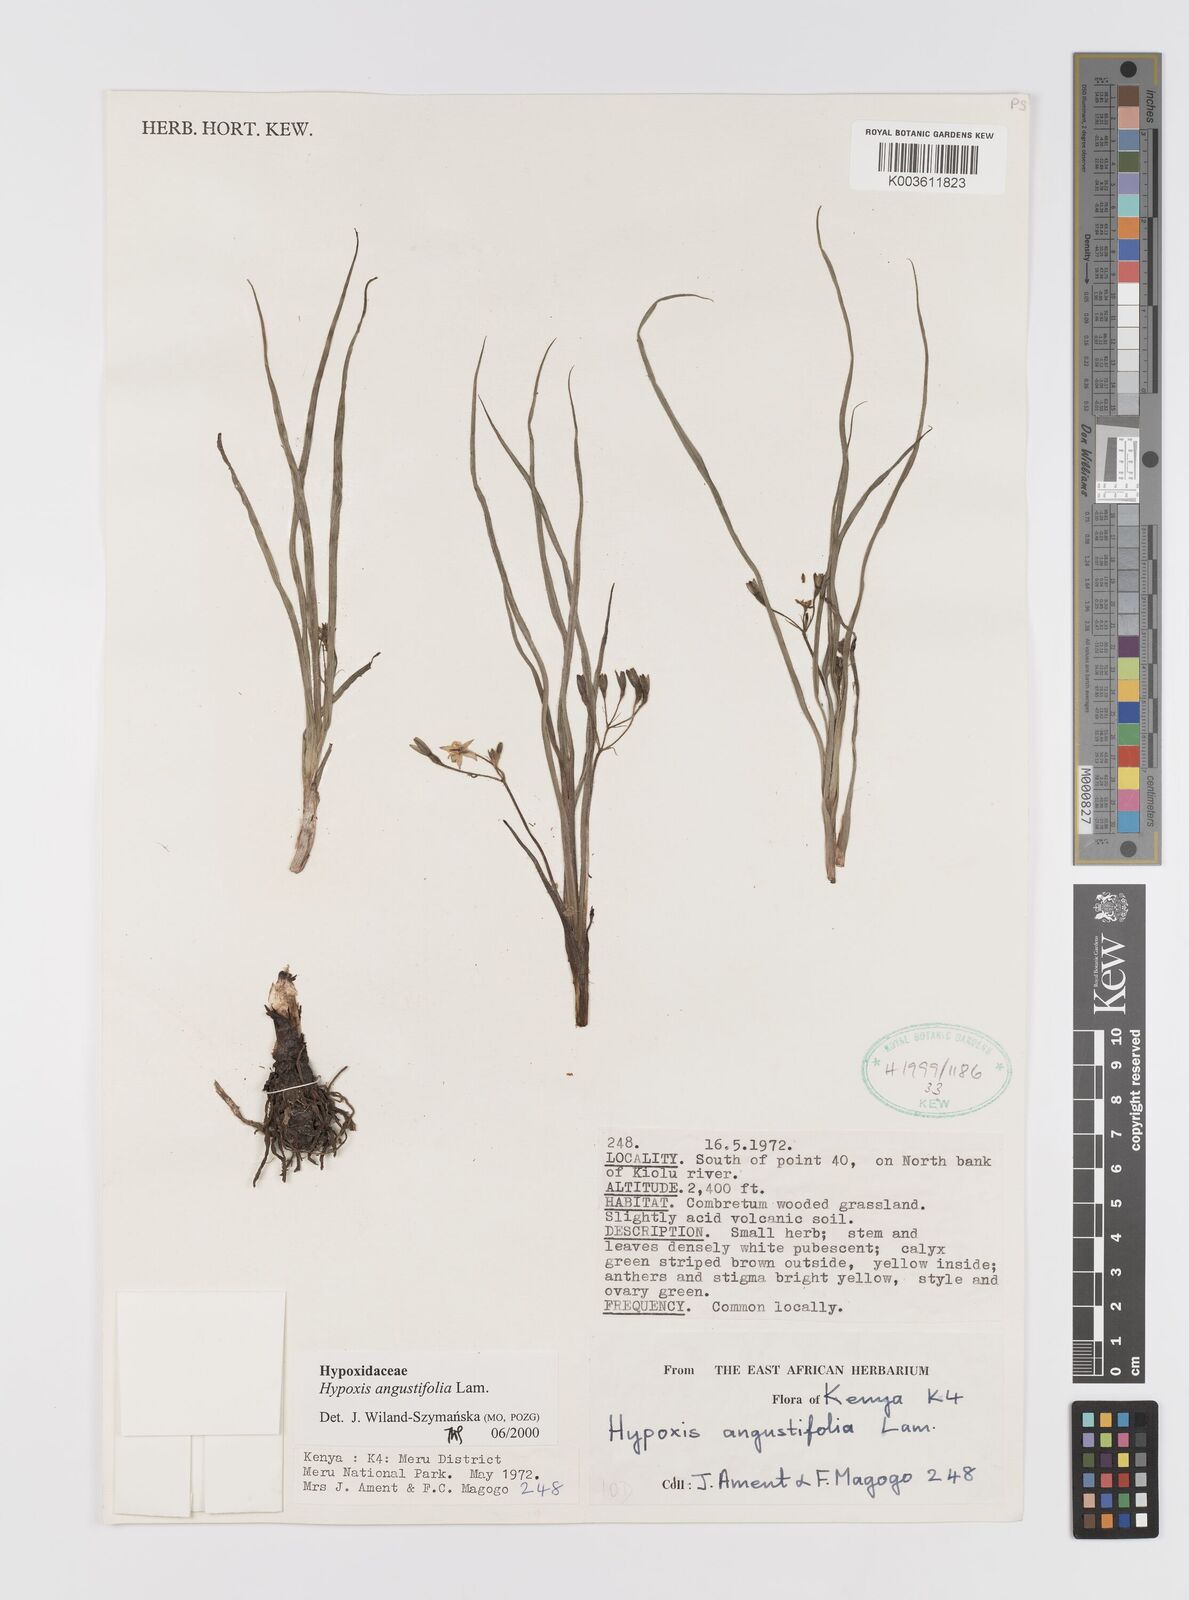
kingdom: Plantae
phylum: Tracheophyta
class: Liliopsida
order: Asparagales
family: Hypoxidaceae
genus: Hypoxis
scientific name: Hypoxis angustifolia
